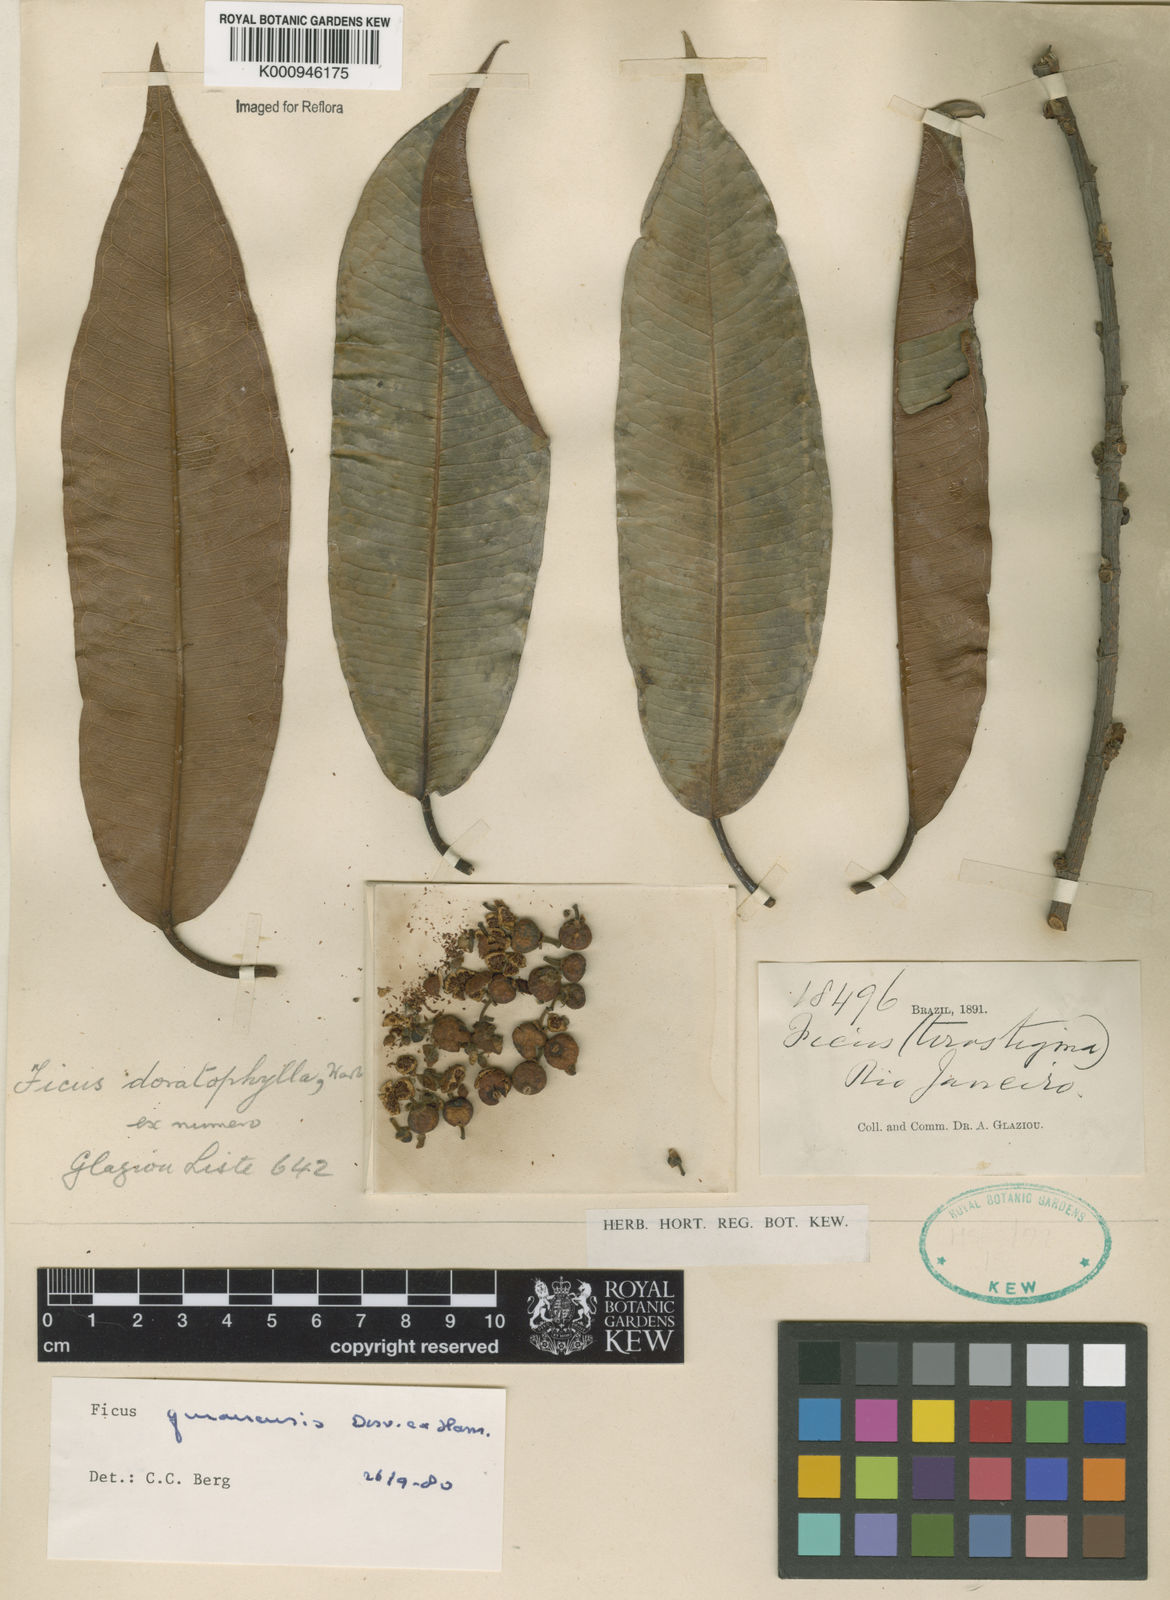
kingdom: Plantae
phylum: Tracheophyta
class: Magnoliopsida
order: Rosales
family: Moraceae
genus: Ficus
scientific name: Ficus
